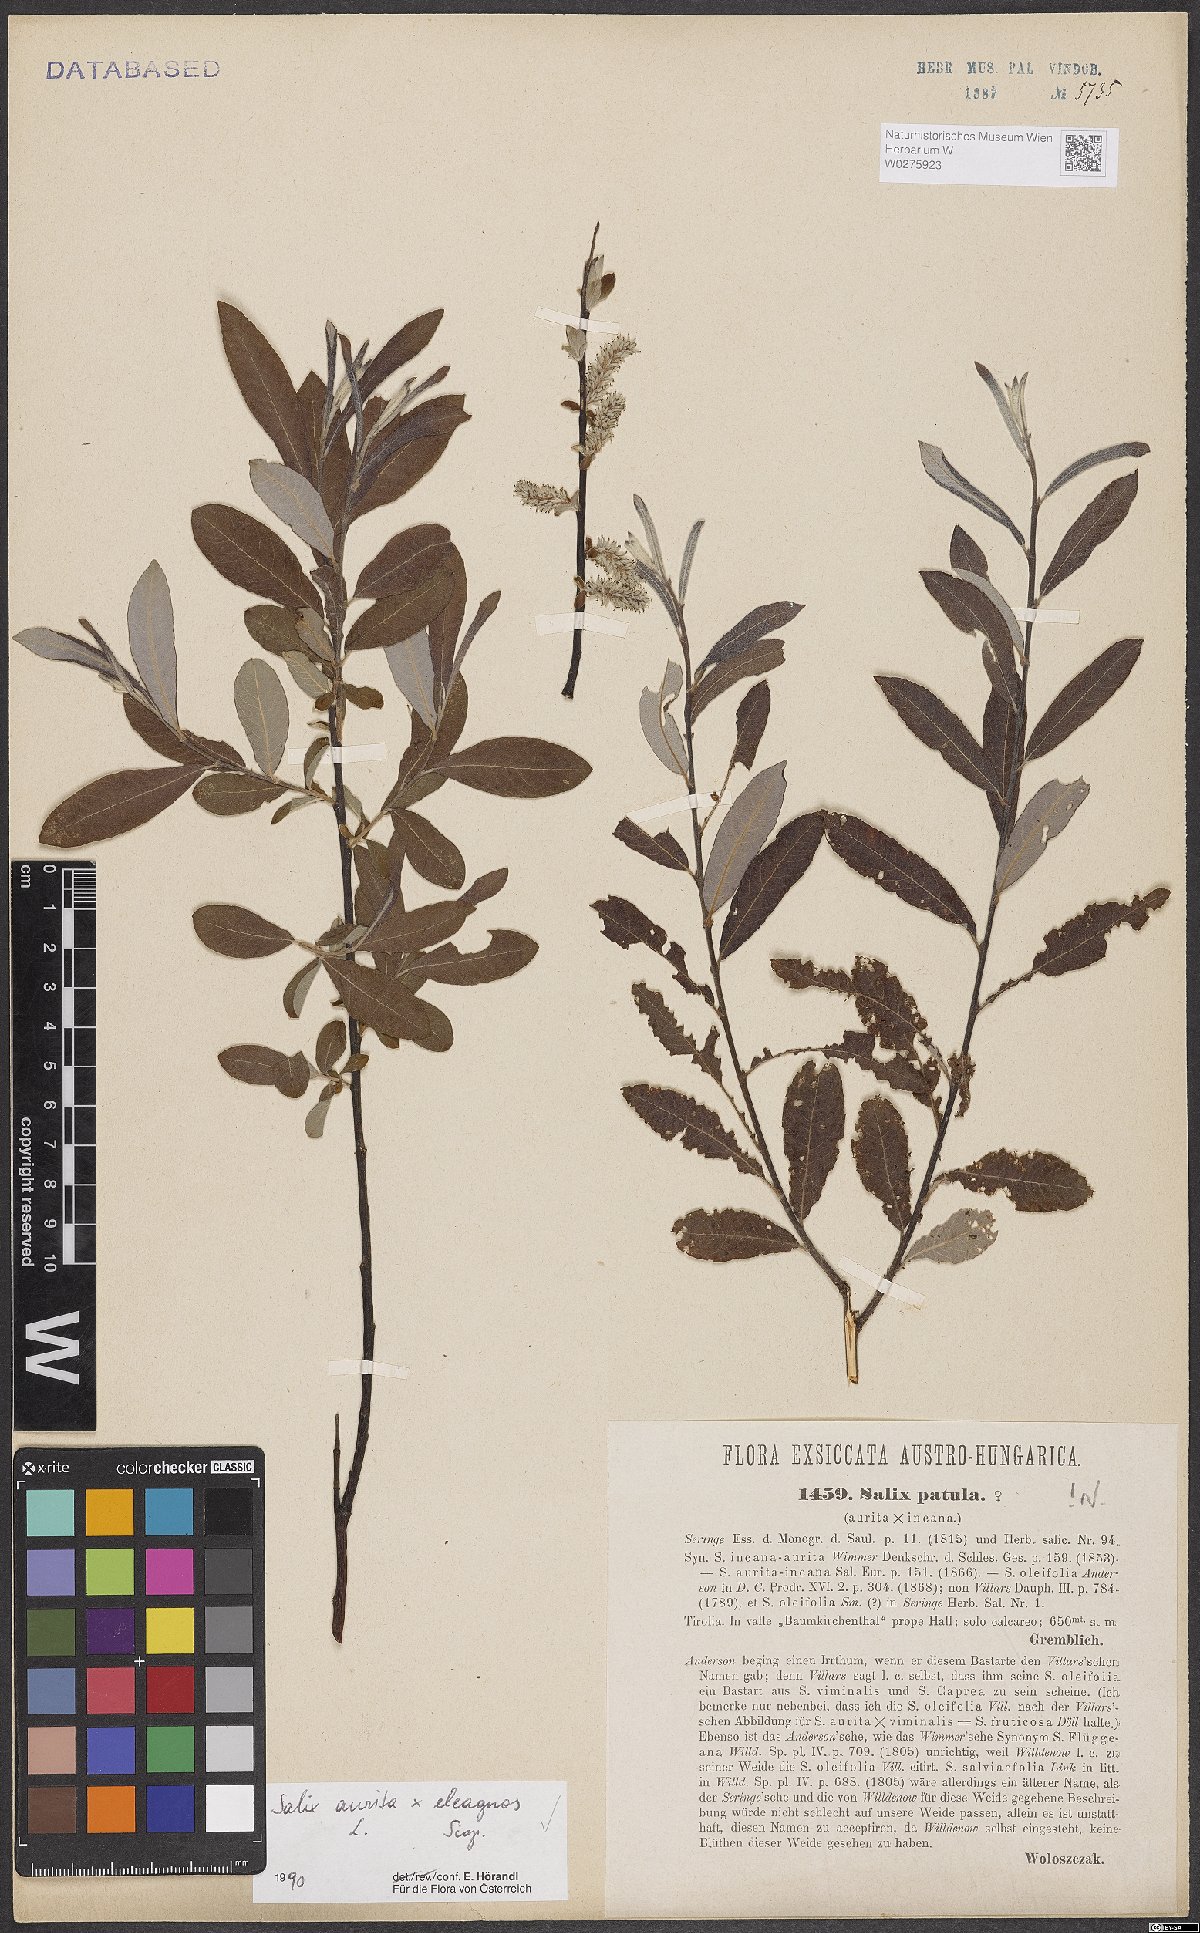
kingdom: Plantae
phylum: Tracheophyta
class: Magnoliopsida
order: Malpighiales
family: Salicaceae
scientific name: Salicaceae
